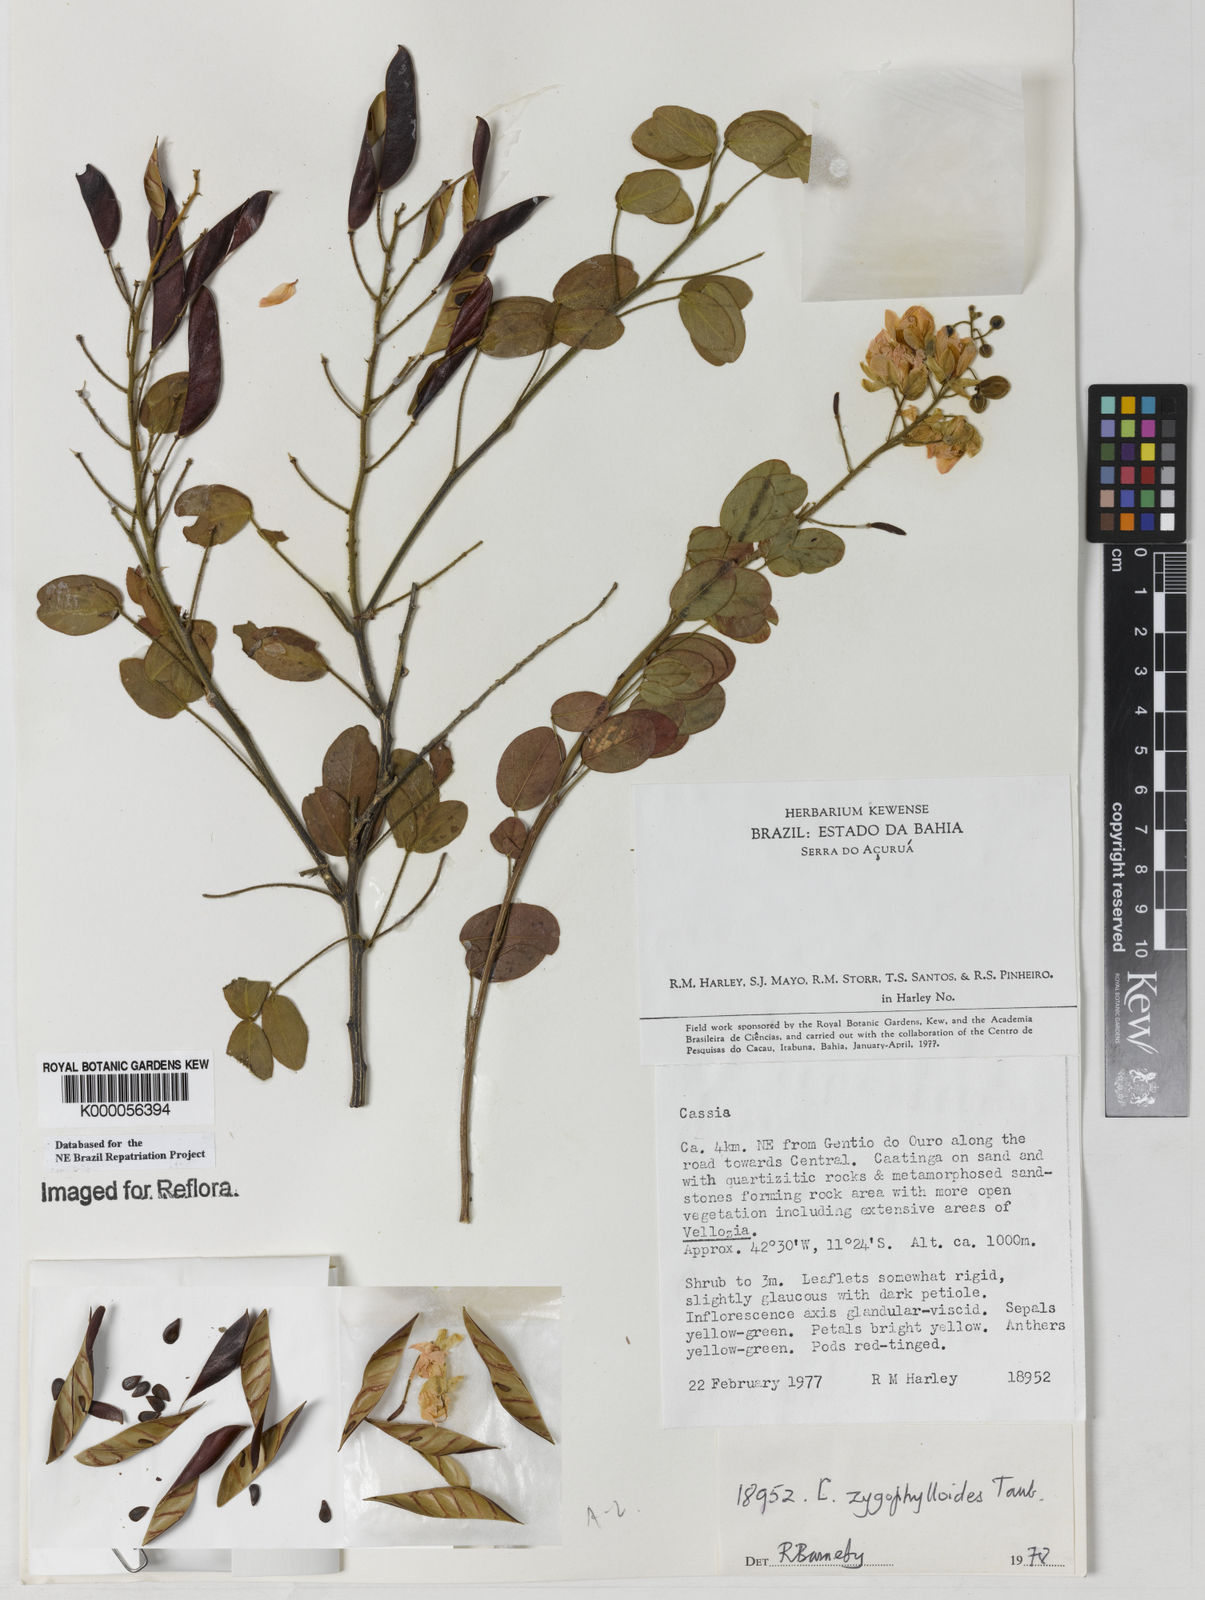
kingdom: Plantae
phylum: Tracheophyta
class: Magnoliopsida
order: Fabales
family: Fabaceae
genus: Chamaecrista
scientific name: Chamaecrista zygophylloides
